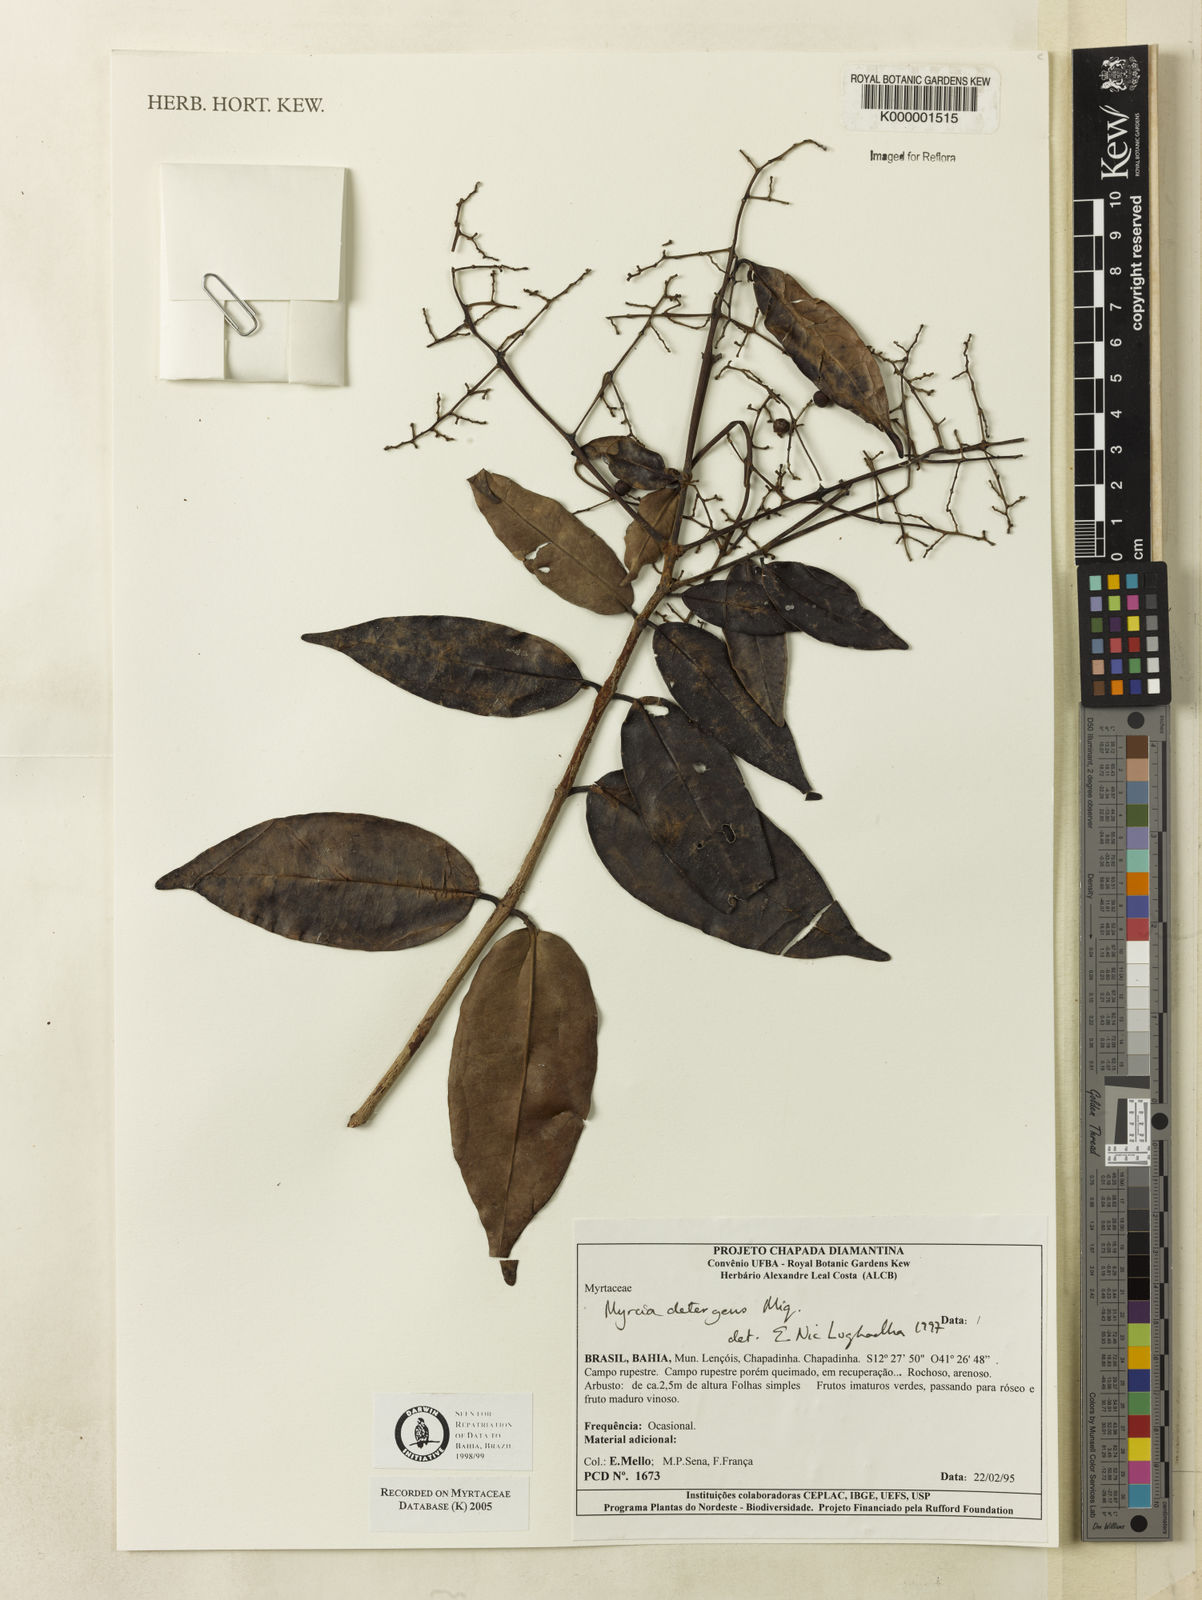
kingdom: Plantae
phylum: Tracheophyta
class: Magnoliopsida
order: Myrtales
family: Myrtaceae
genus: Myrcia
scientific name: Myrcia amazonica
